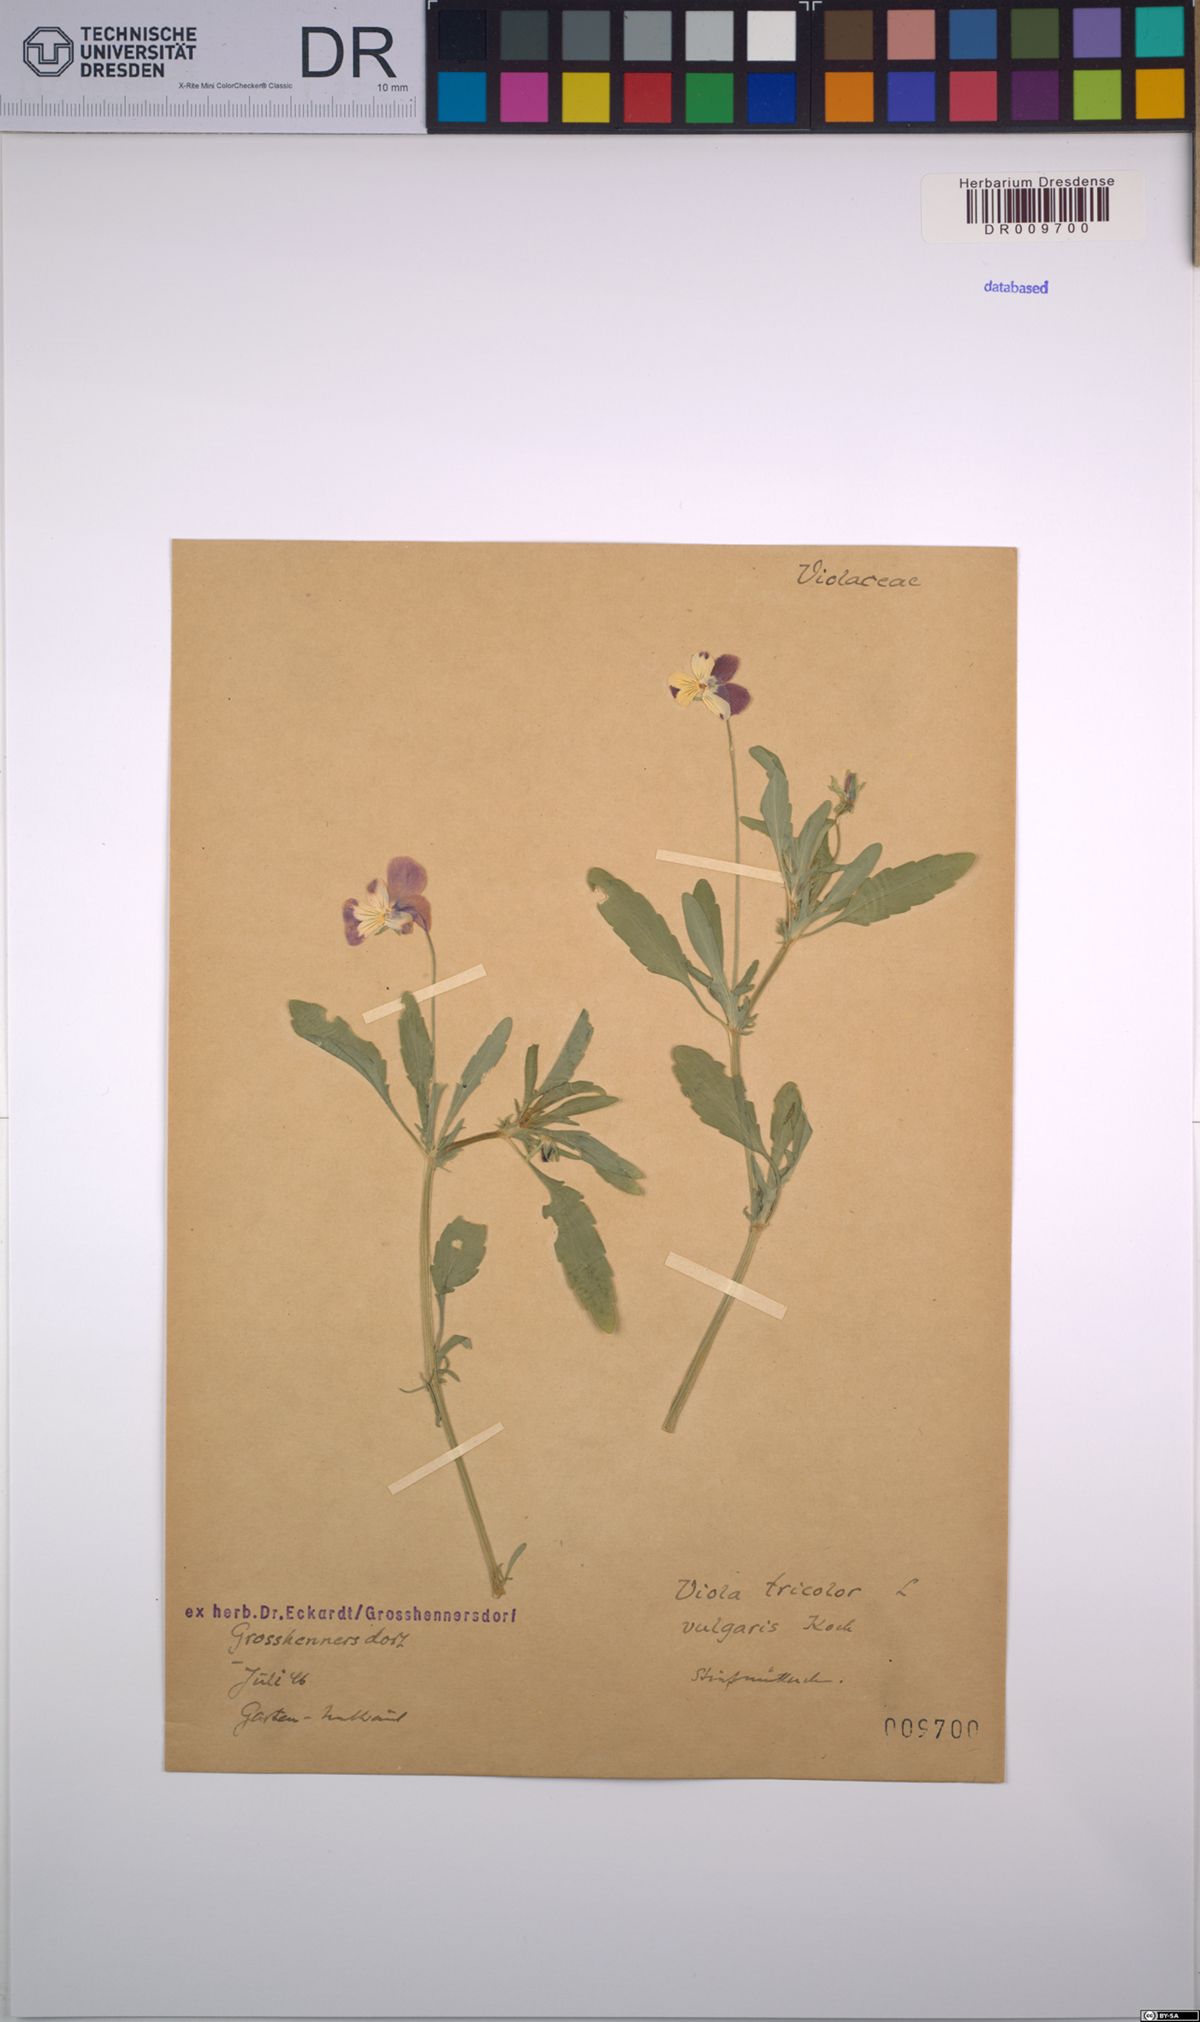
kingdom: Plantae
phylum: Tracheophyta
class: Magnoliopsida
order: Malpighiales
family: Violaceae
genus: Viola
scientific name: Viola tricolor
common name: Pansy
